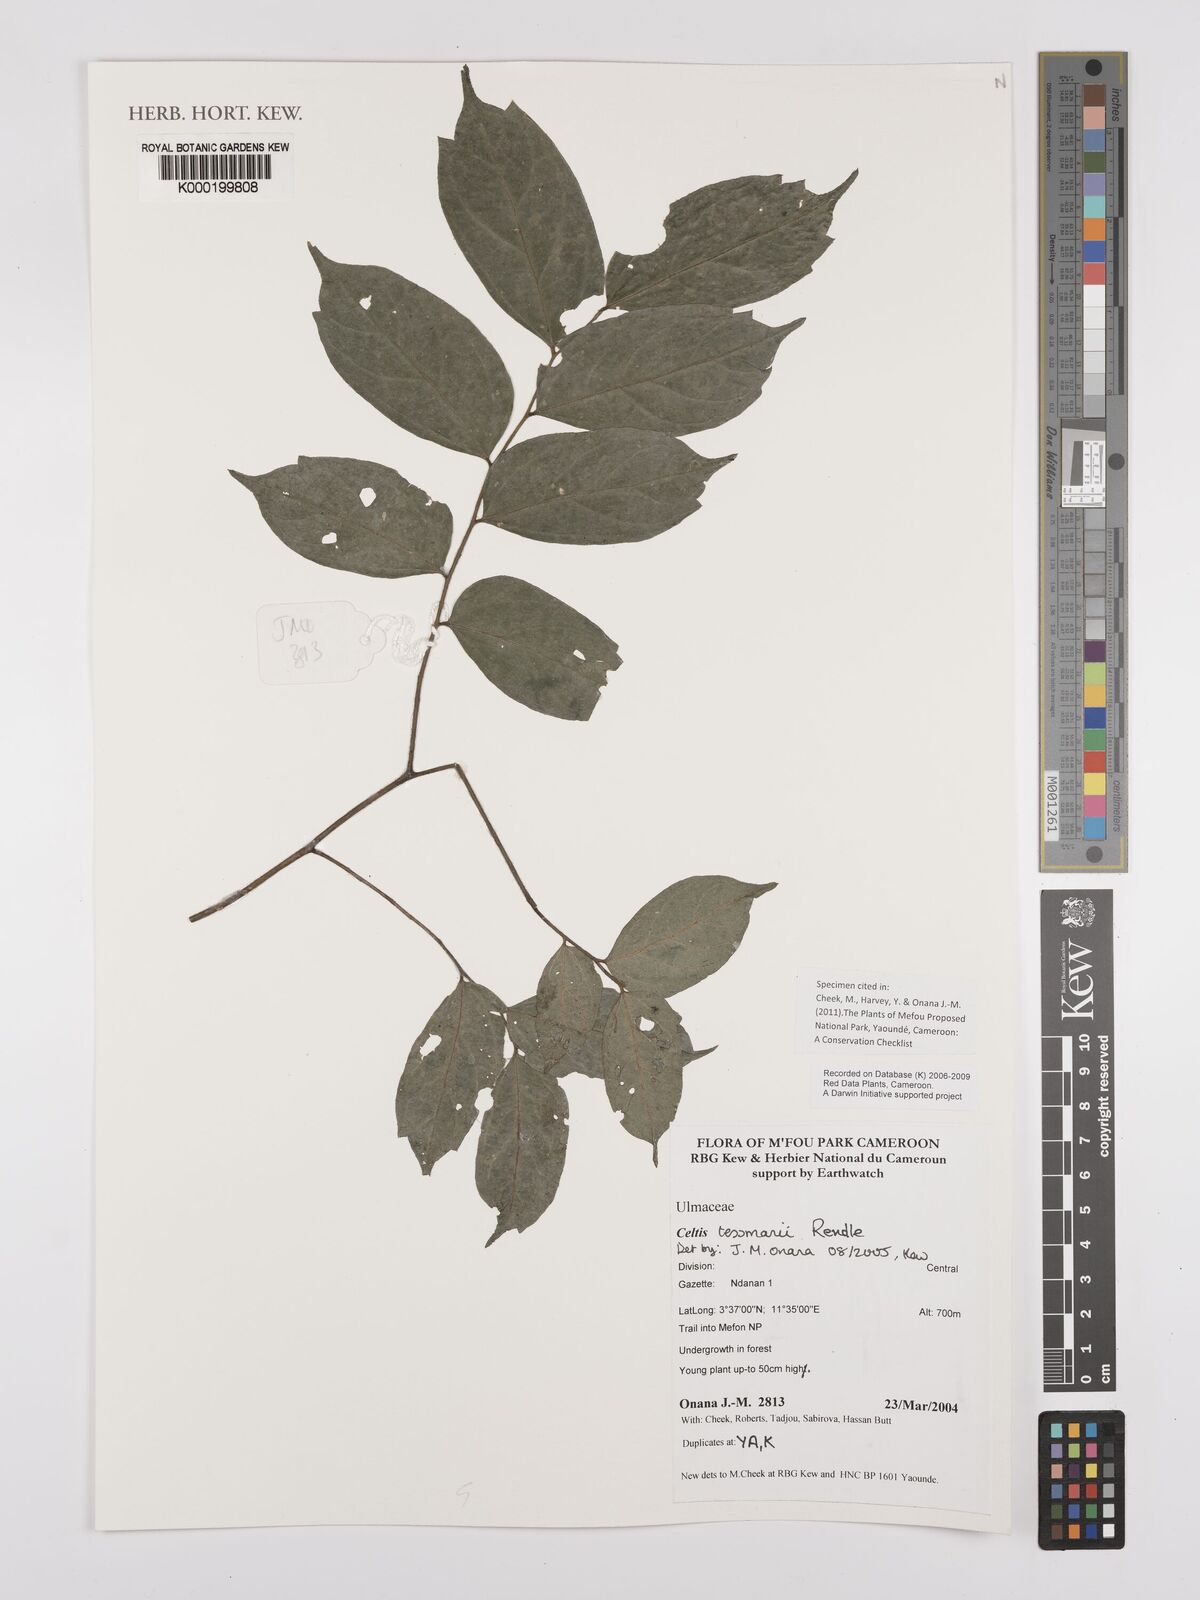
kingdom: Plantae
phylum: Tracheophyta
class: Magnoliopsida
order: Rosales
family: Cannabaceae
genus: Celtis
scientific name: Celtis tessmannii
